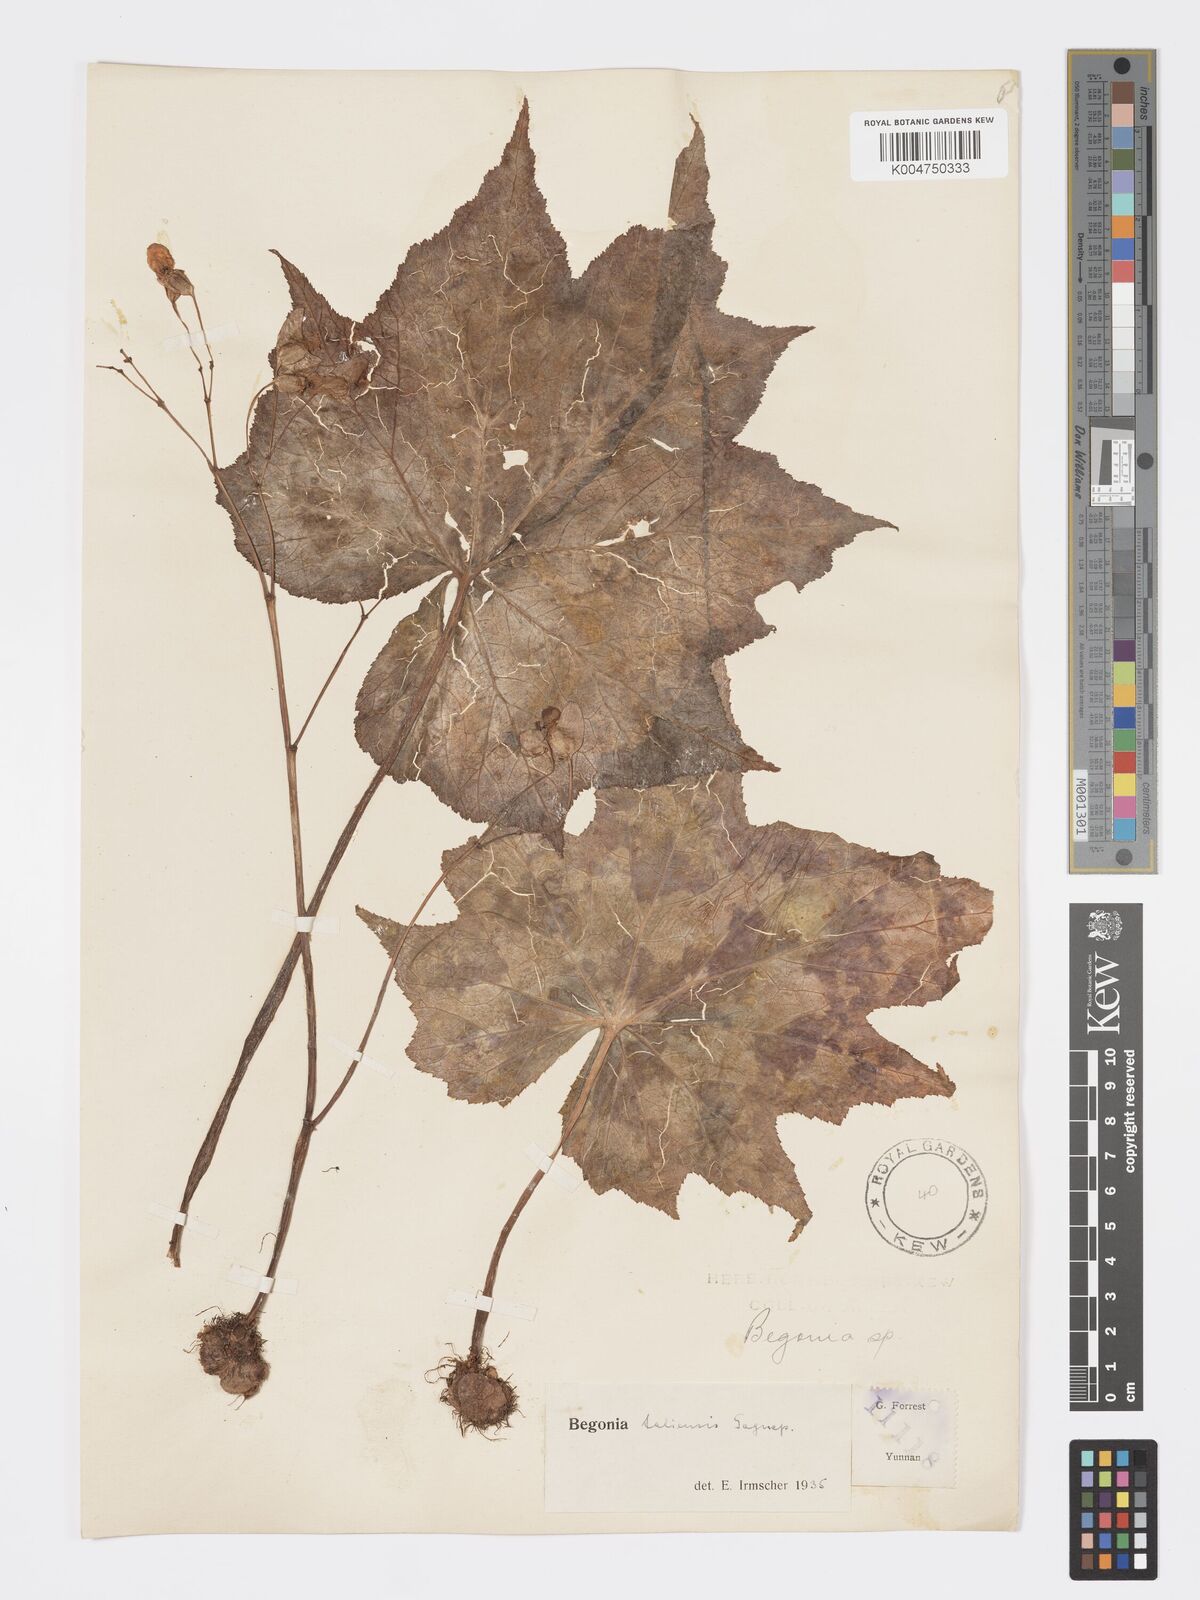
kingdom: Plantae
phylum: Tracheophyta
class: Magnoliopsida
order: Cucurbitales
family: Begoniaceae
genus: Begonia
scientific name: Begonia taliensis
